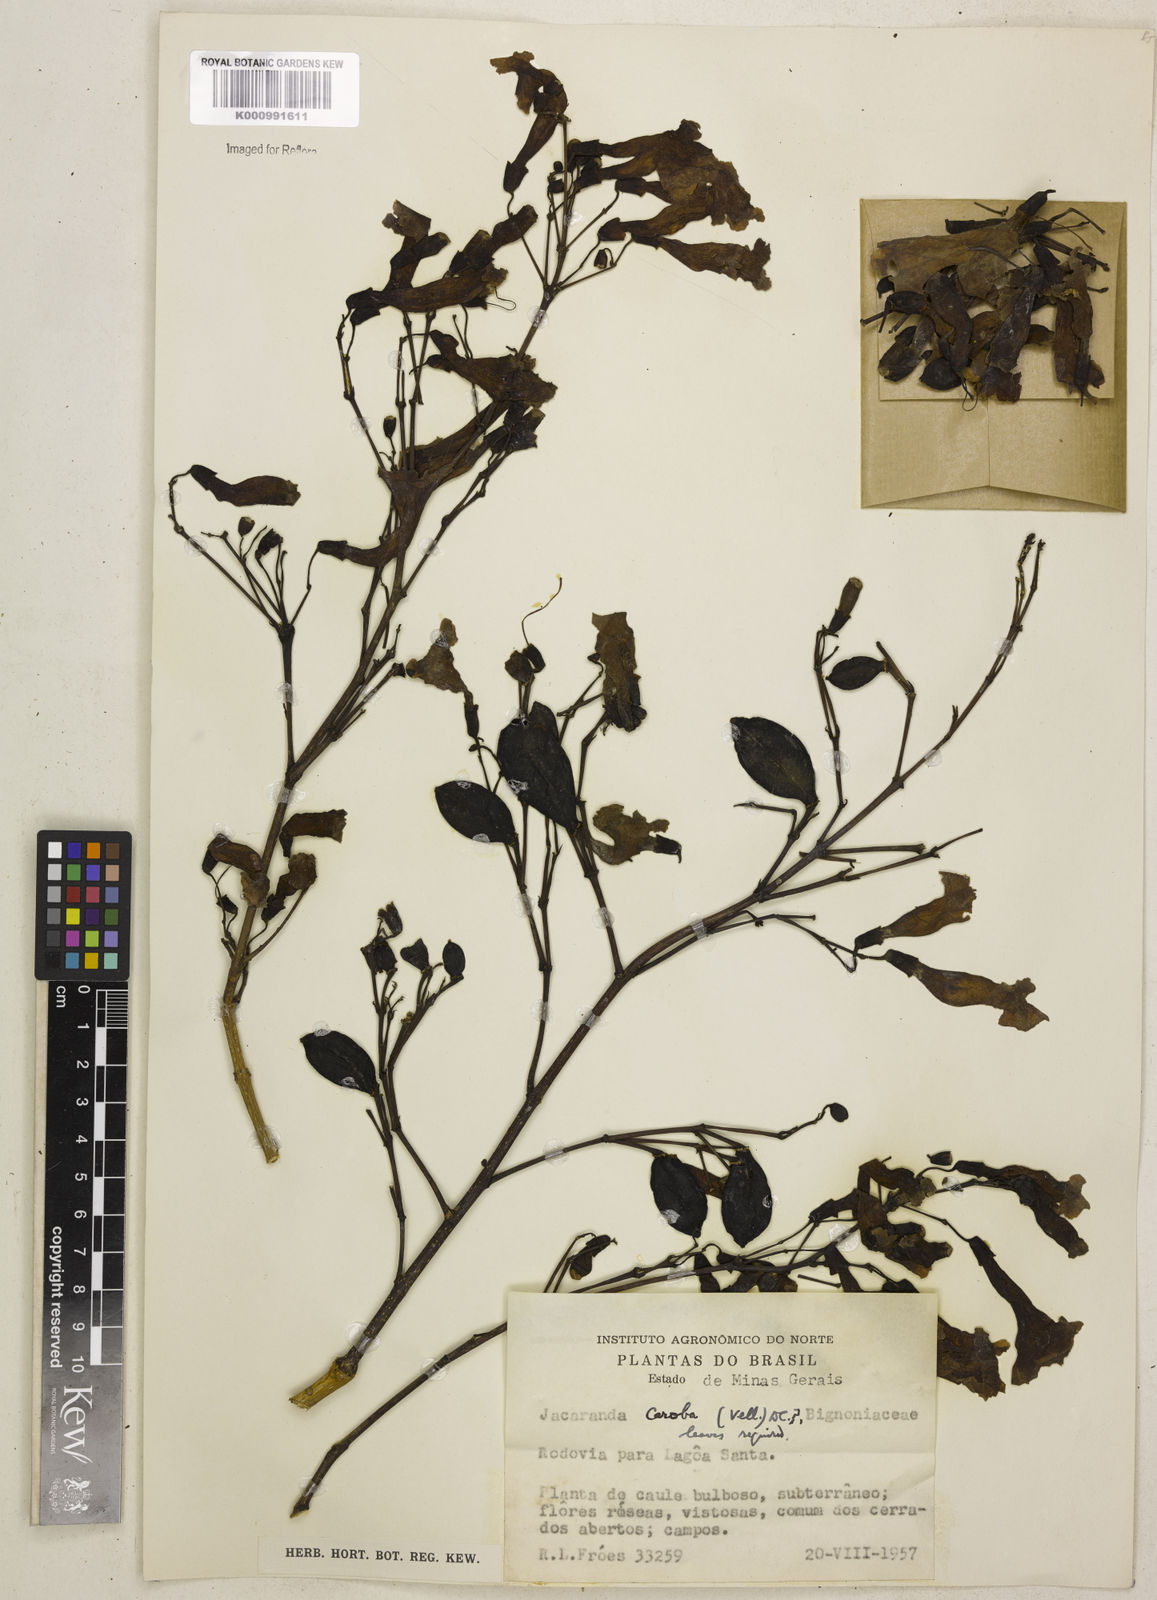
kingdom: Plantae
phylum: Tracheophyta
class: Magnoliopsida
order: Lamiales
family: Bignoniaceae
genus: Jacaranda
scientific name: Jacaranda caroba
